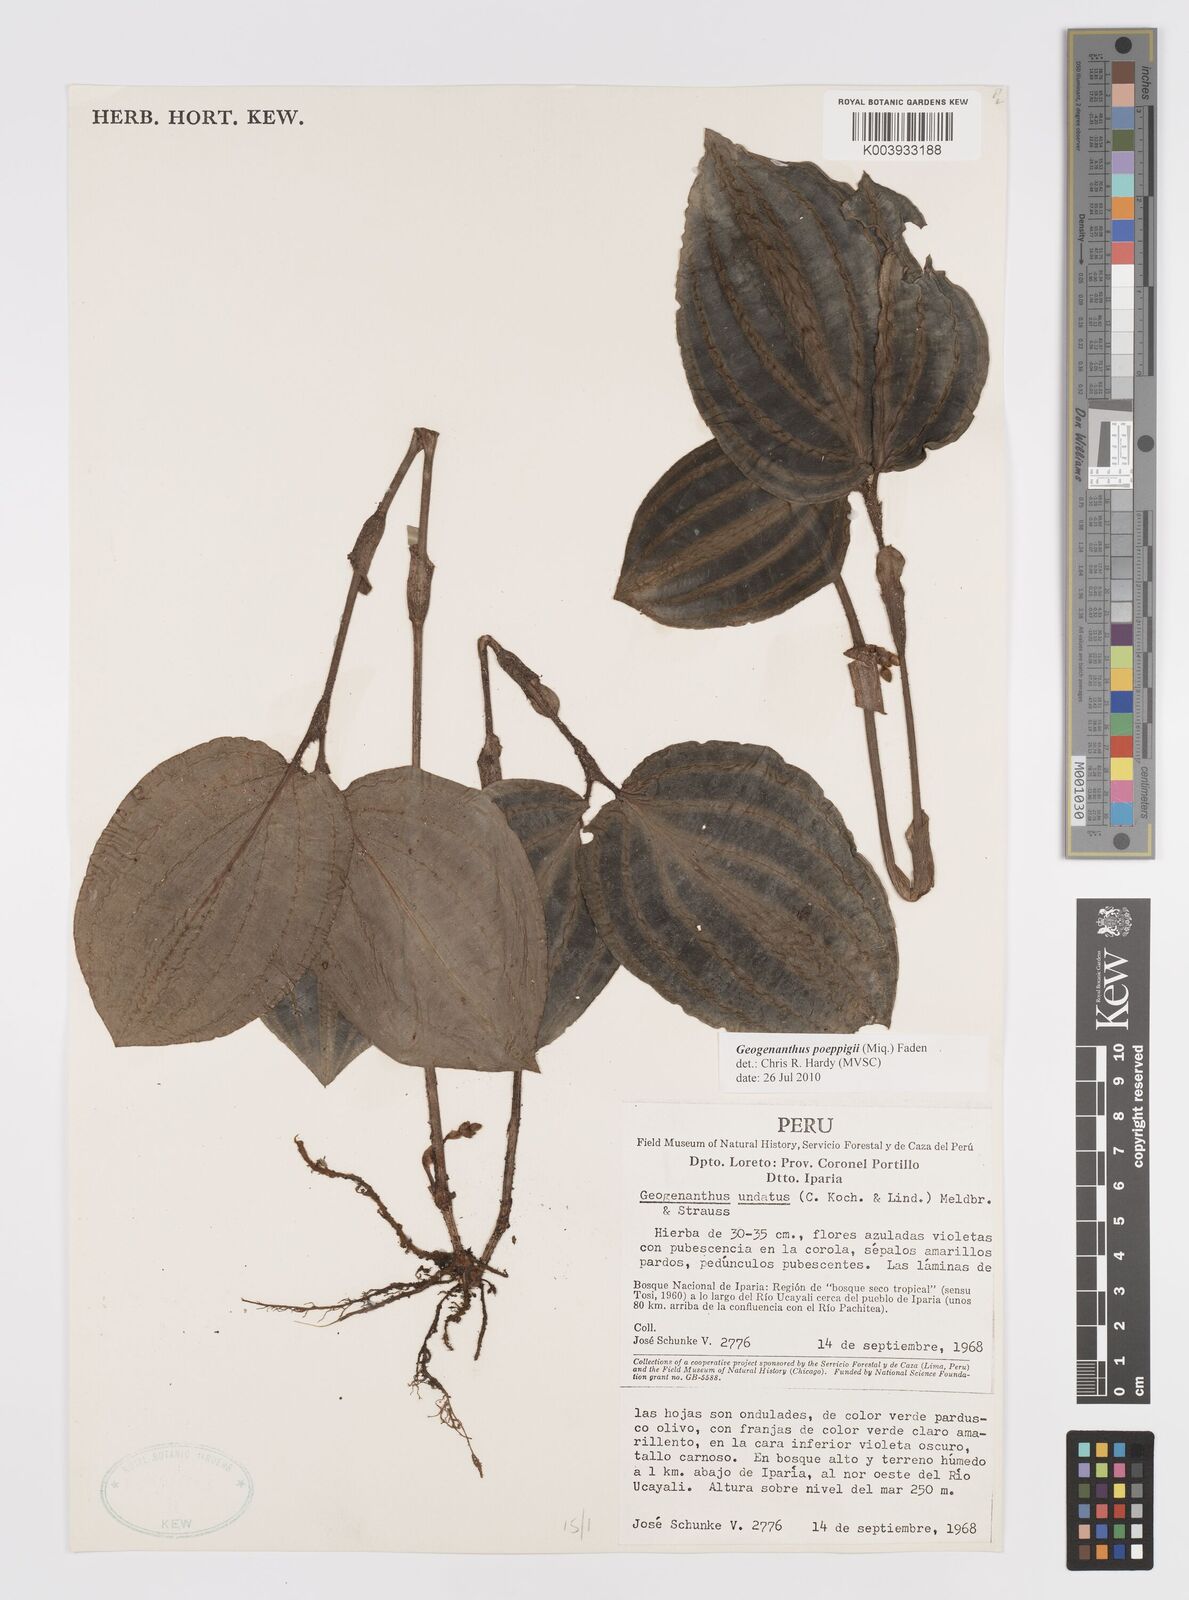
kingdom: Plantae
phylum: Tracheophyta
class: Liliopsida
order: Commelinales
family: Commelinaceae
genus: Geogenanthus
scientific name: Geogenanthus poeppigii
